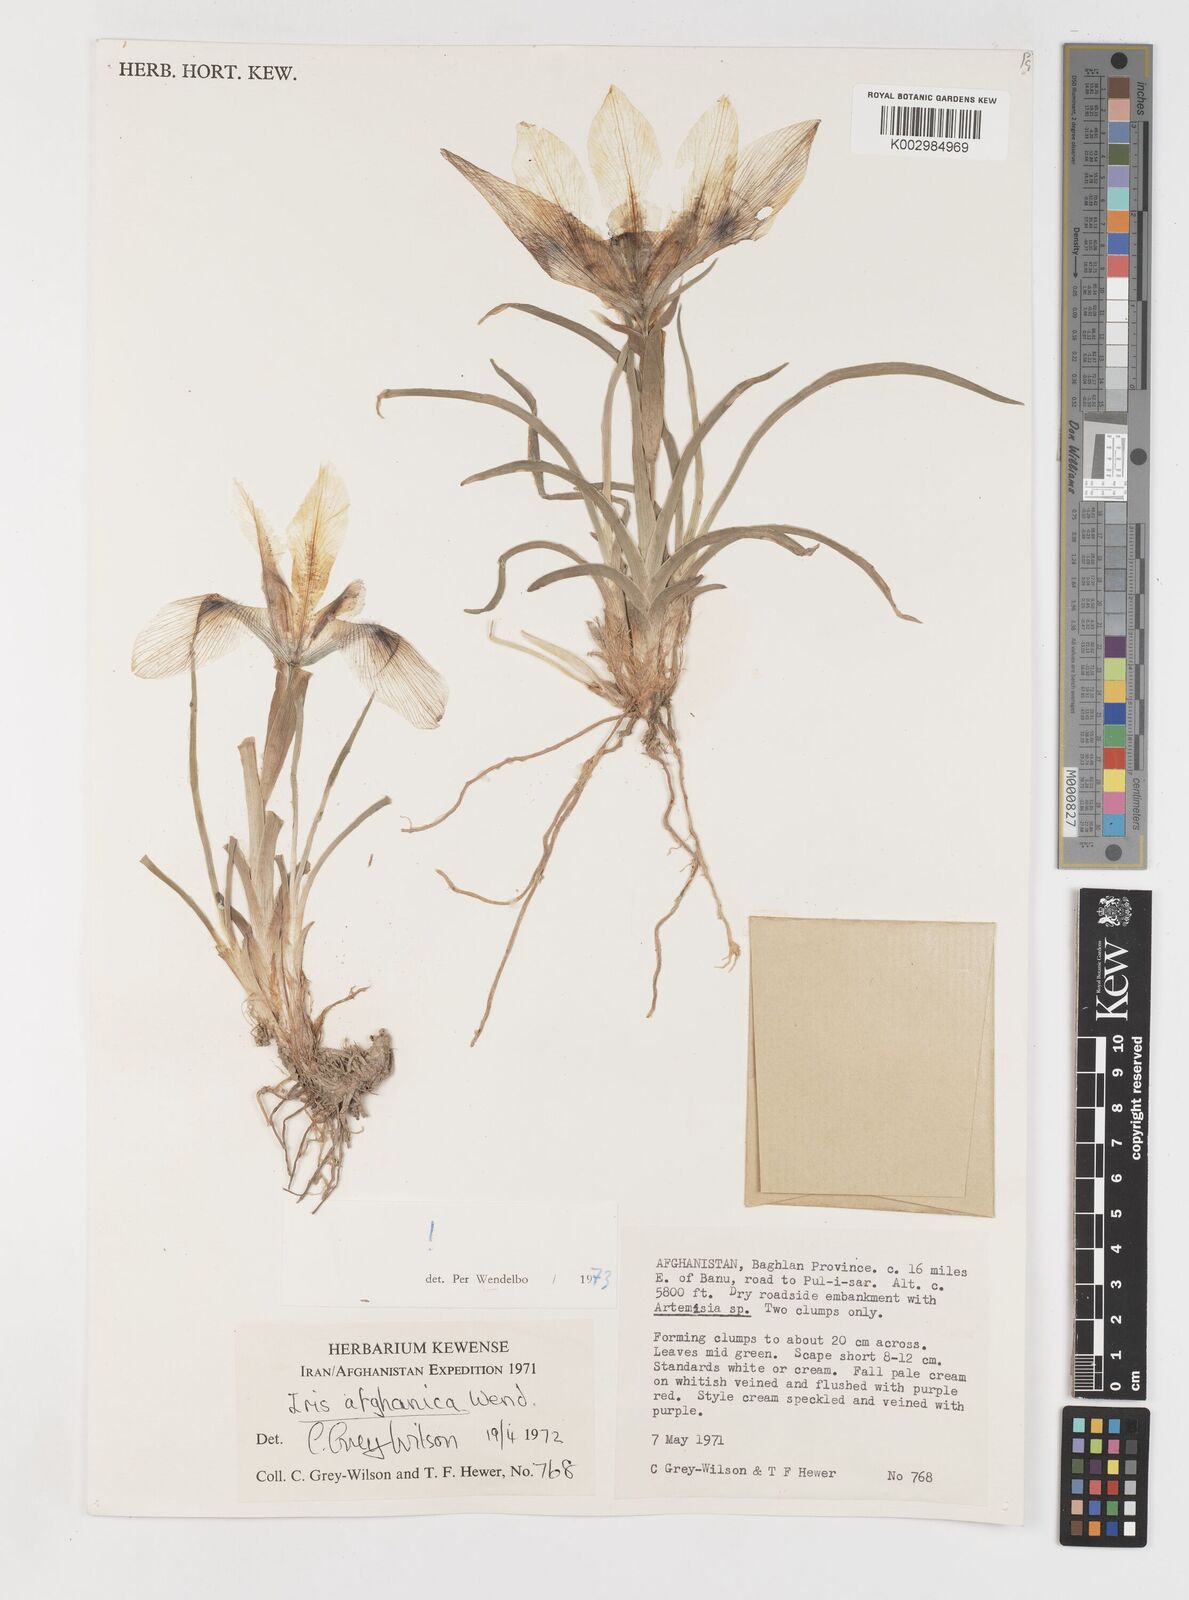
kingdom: Plantae
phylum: Tracheophyta
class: Liliopsida
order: Asparagales
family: Iridaceae
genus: Iris
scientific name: Iris afghanica
